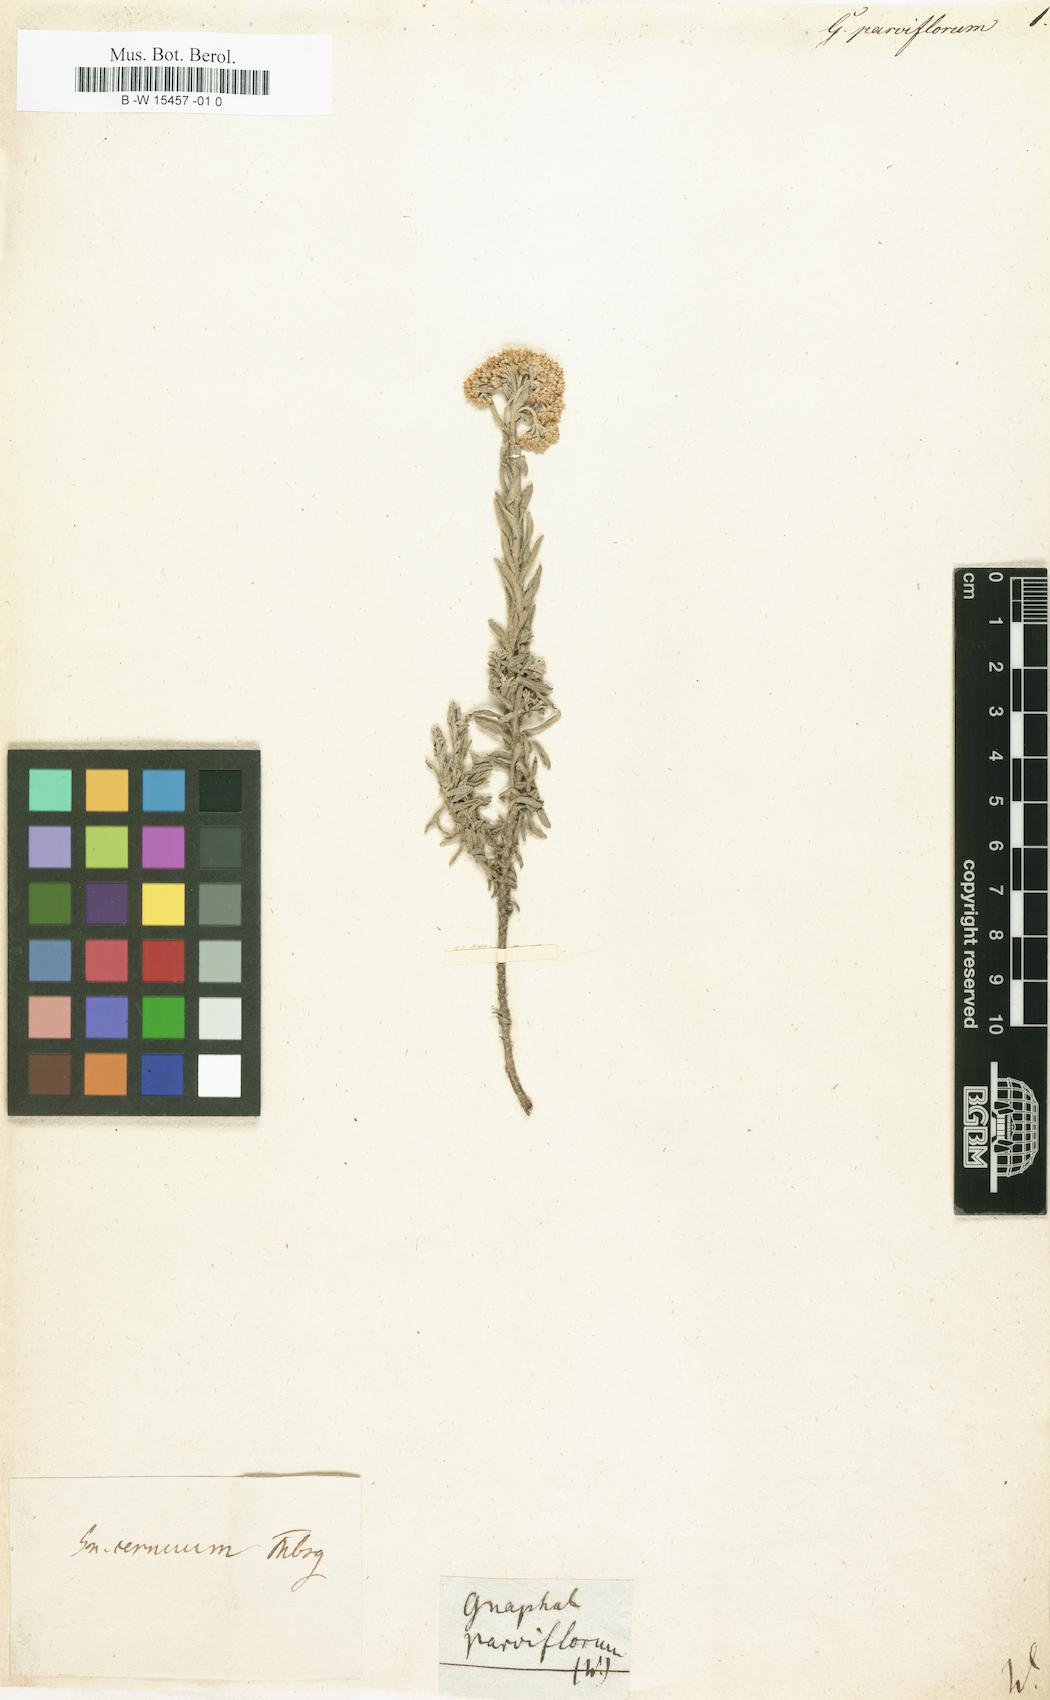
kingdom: Plantae
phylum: Tracheophyta
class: Magnoliopsida
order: Asterales
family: Asteraceae
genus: Gnaphalium
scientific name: Gnaphalium parviflorum
